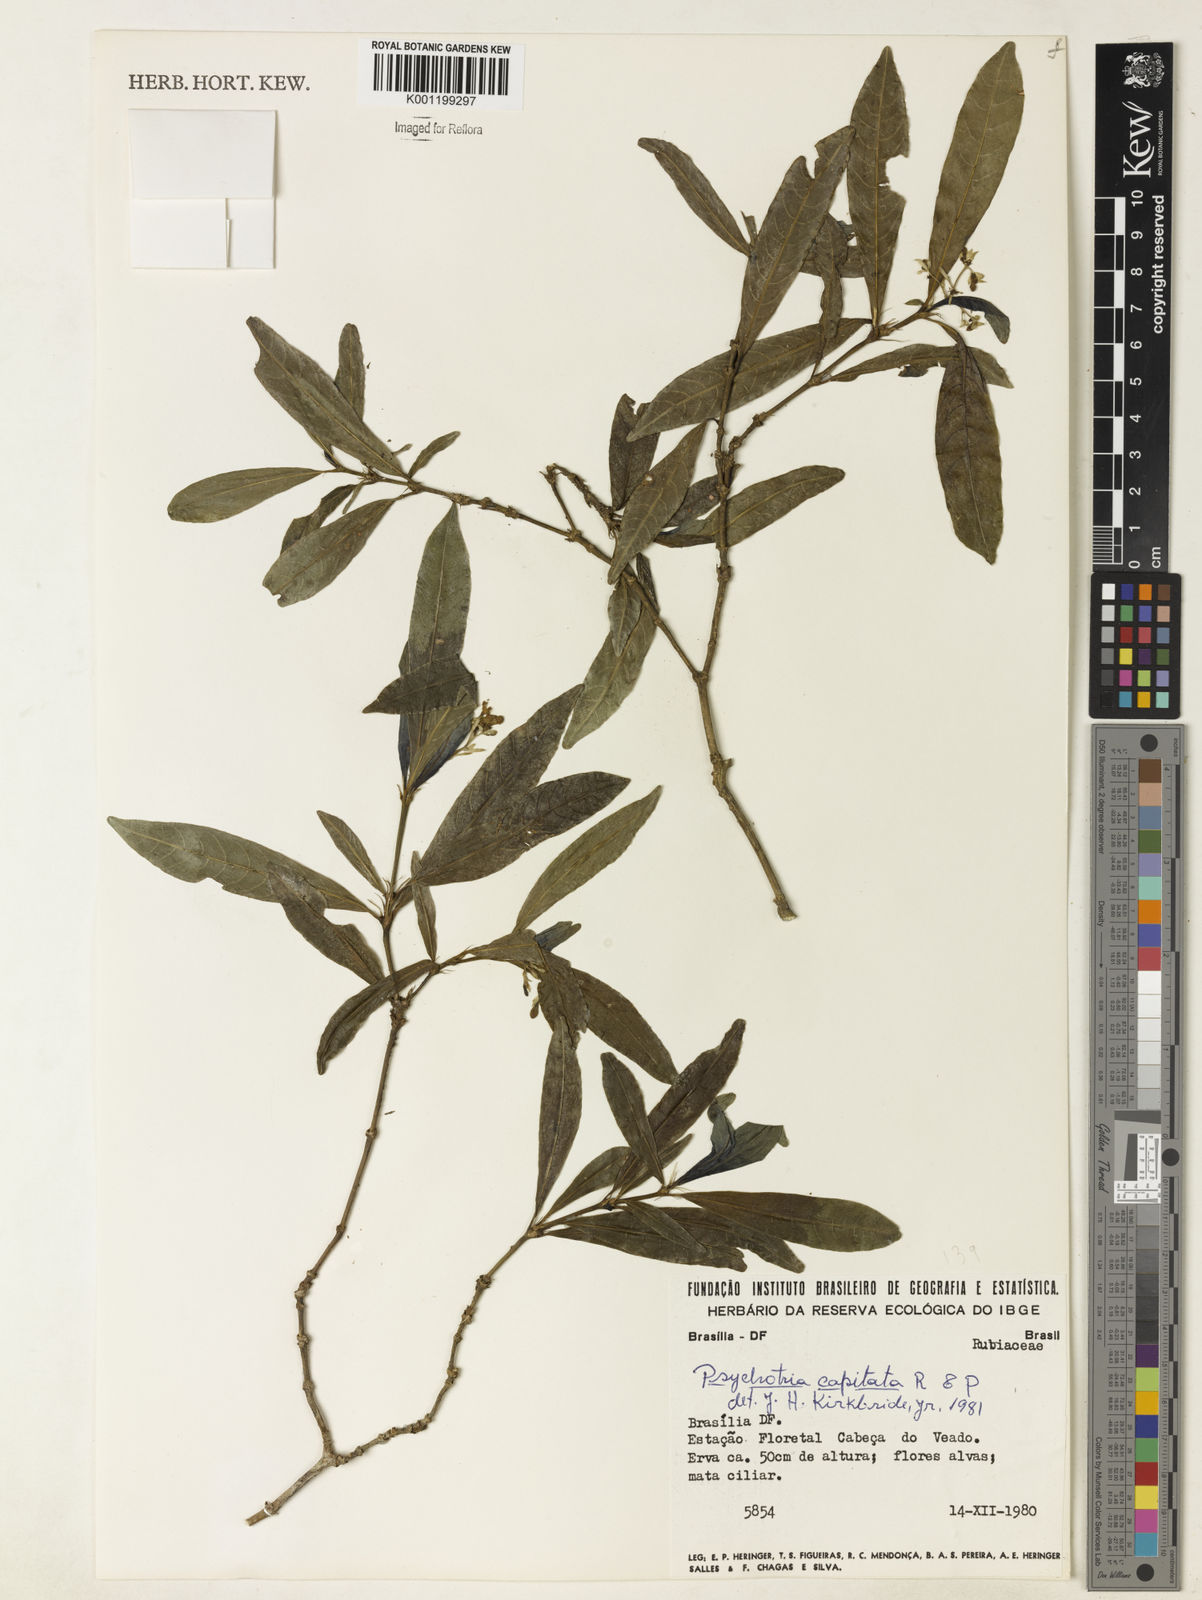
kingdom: Plantae
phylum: Tracheophyta
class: Magnoliopsida
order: Gentianales
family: Rubiaceae
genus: Palicourea
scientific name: Palicourea violacea
